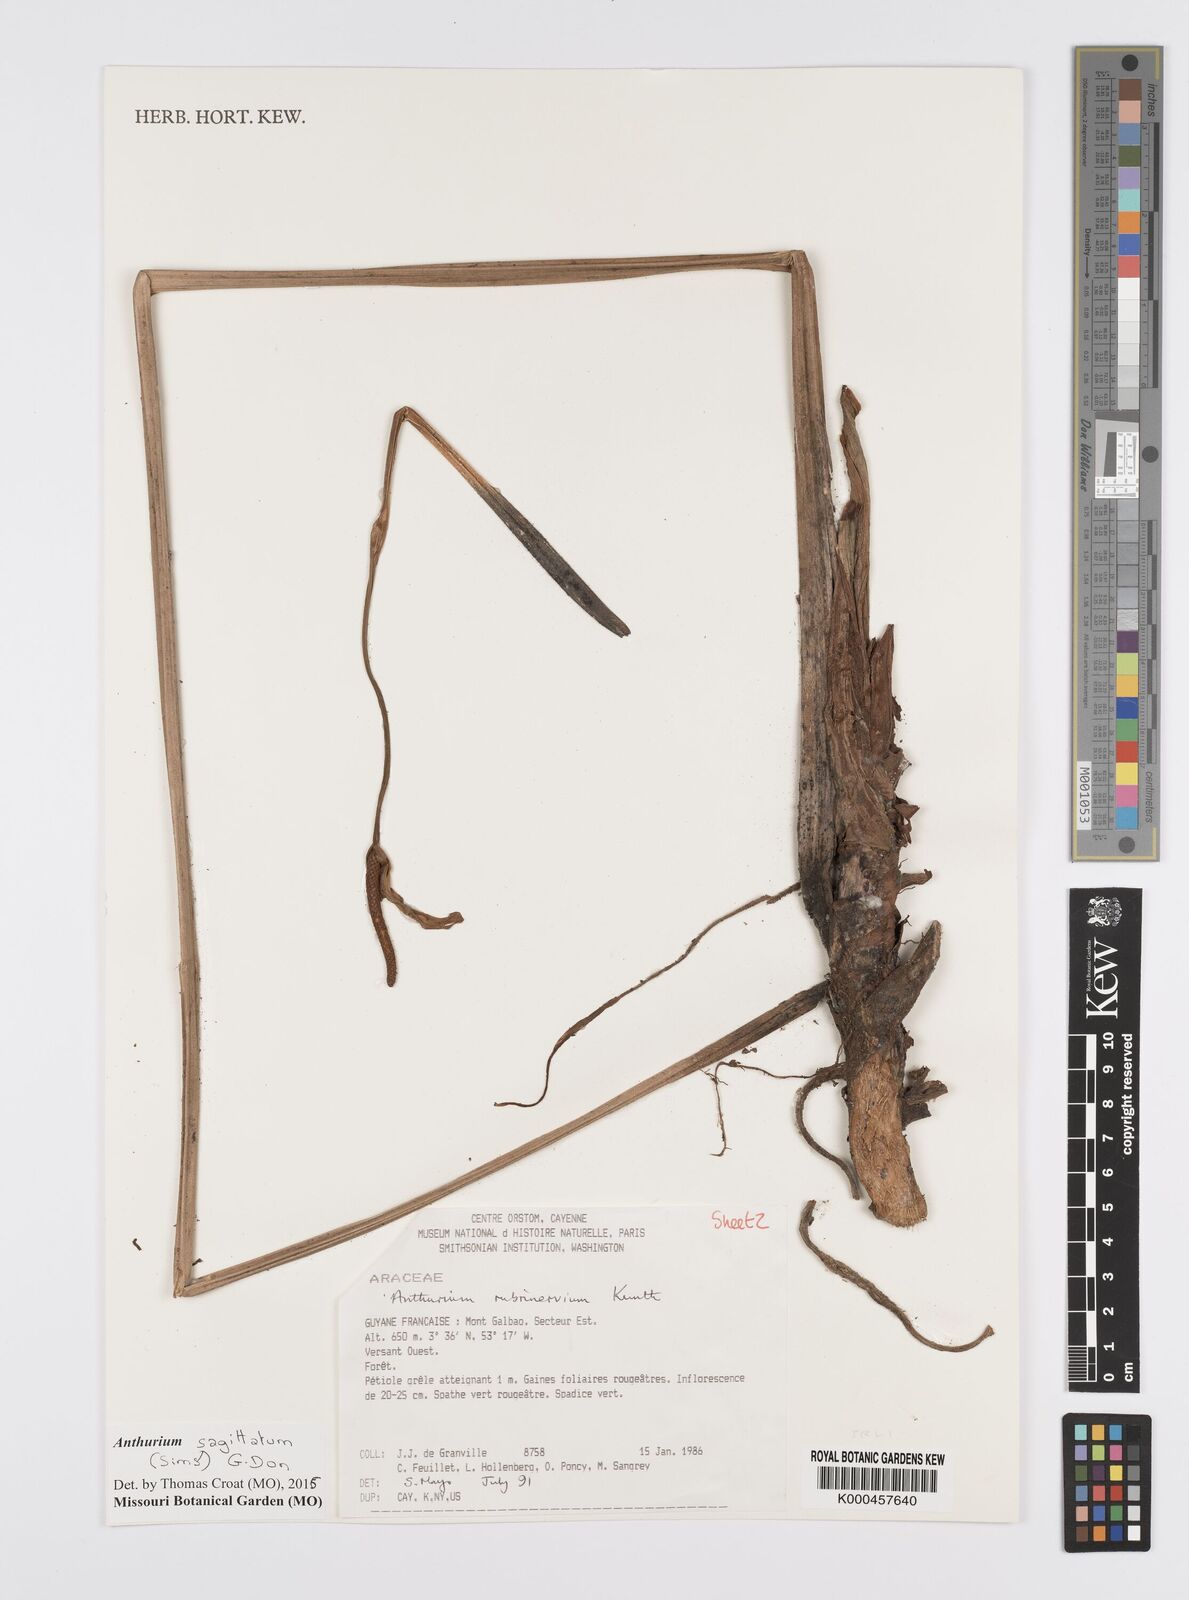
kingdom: Plantae
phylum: Tracheophyta
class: Liliopsida
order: Alismatales
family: Araceae
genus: Anthurium
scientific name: Anthurium sagittatum
